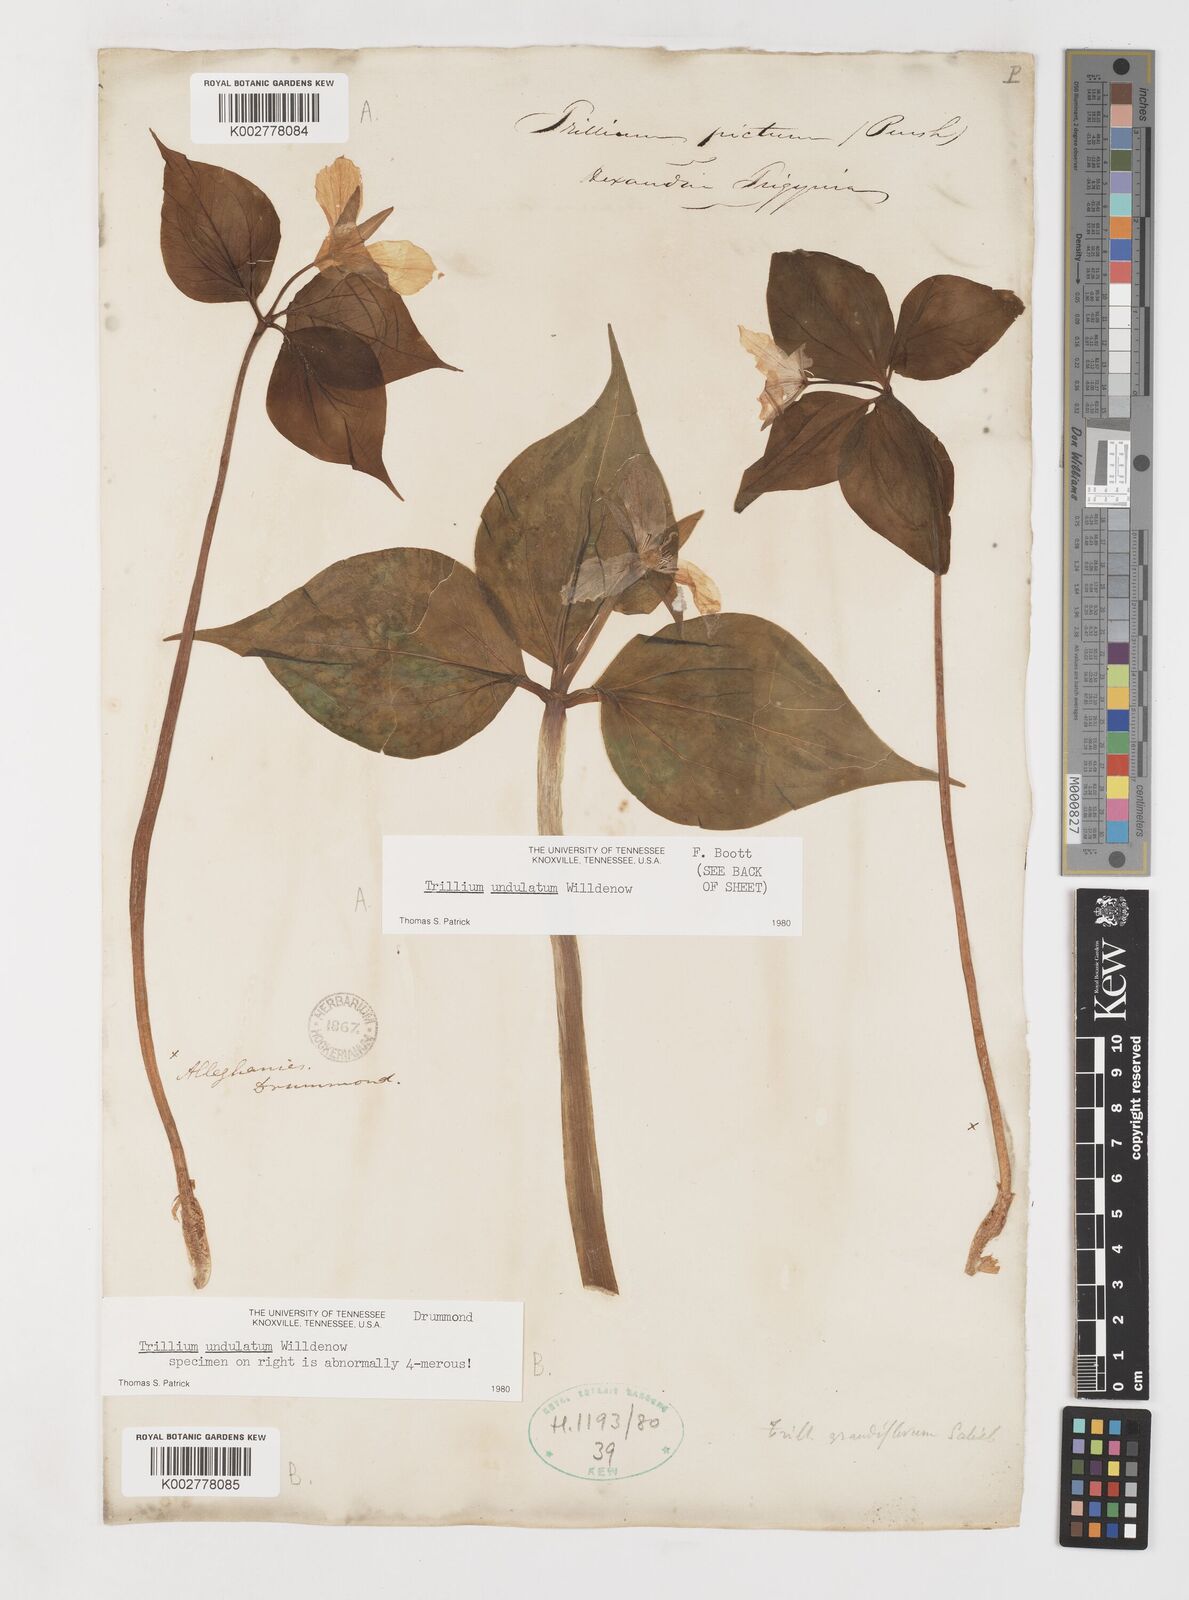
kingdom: Plantae
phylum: Tracheophyta
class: Liliopsida
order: Liliales
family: Melanthiaceae
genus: Trillium
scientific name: Trillium undulatum
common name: Paint trillium
